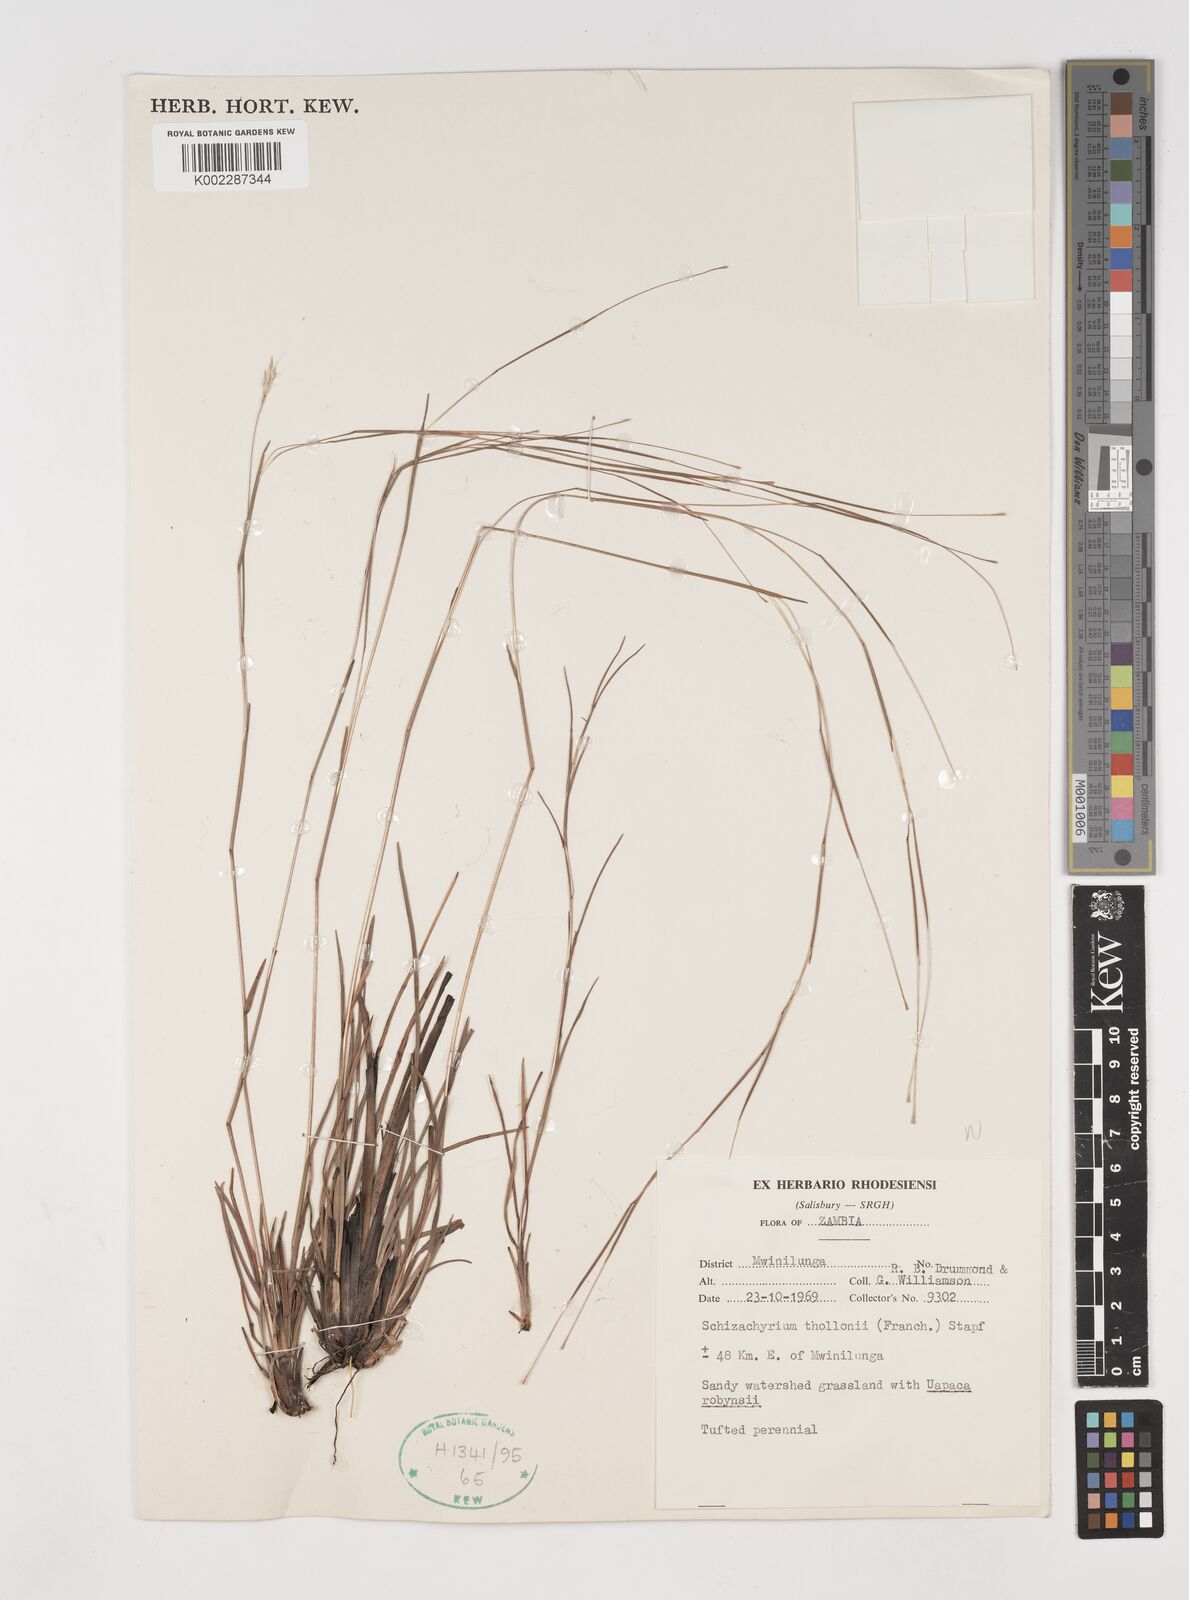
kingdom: Plantae
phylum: Tracheophyta
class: Liliopsida
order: Poales
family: Poaceae
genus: Andropogon
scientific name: Andropogon schweinfurthii
